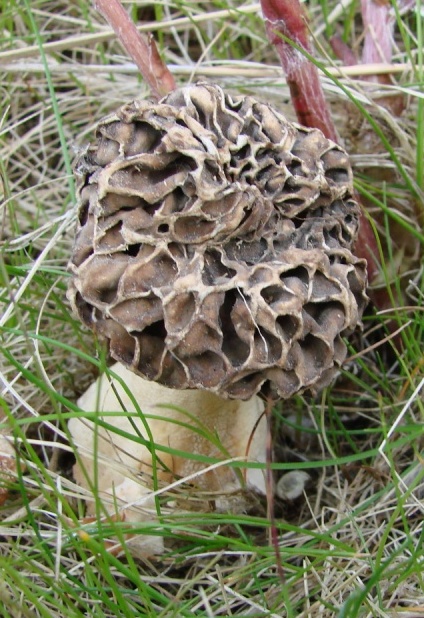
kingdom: Fungi
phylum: Ascomycota
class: Pezizomycetes
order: Pezizales
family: Morchellaceae
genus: Morchella
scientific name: Morchella esculenta
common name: spiselig morkel
